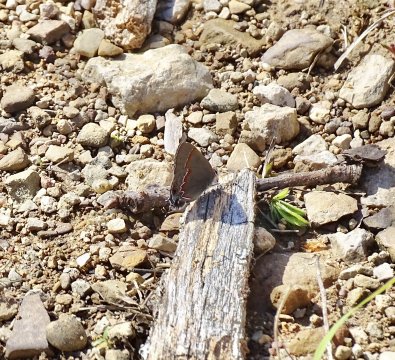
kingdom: Animalia
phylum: Arthropoda
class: Insecta
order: Lepidoptera
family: Lycaenidae
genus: Calycopis
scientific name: Calycopis cecrops
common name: Red-banded Hairstreak
